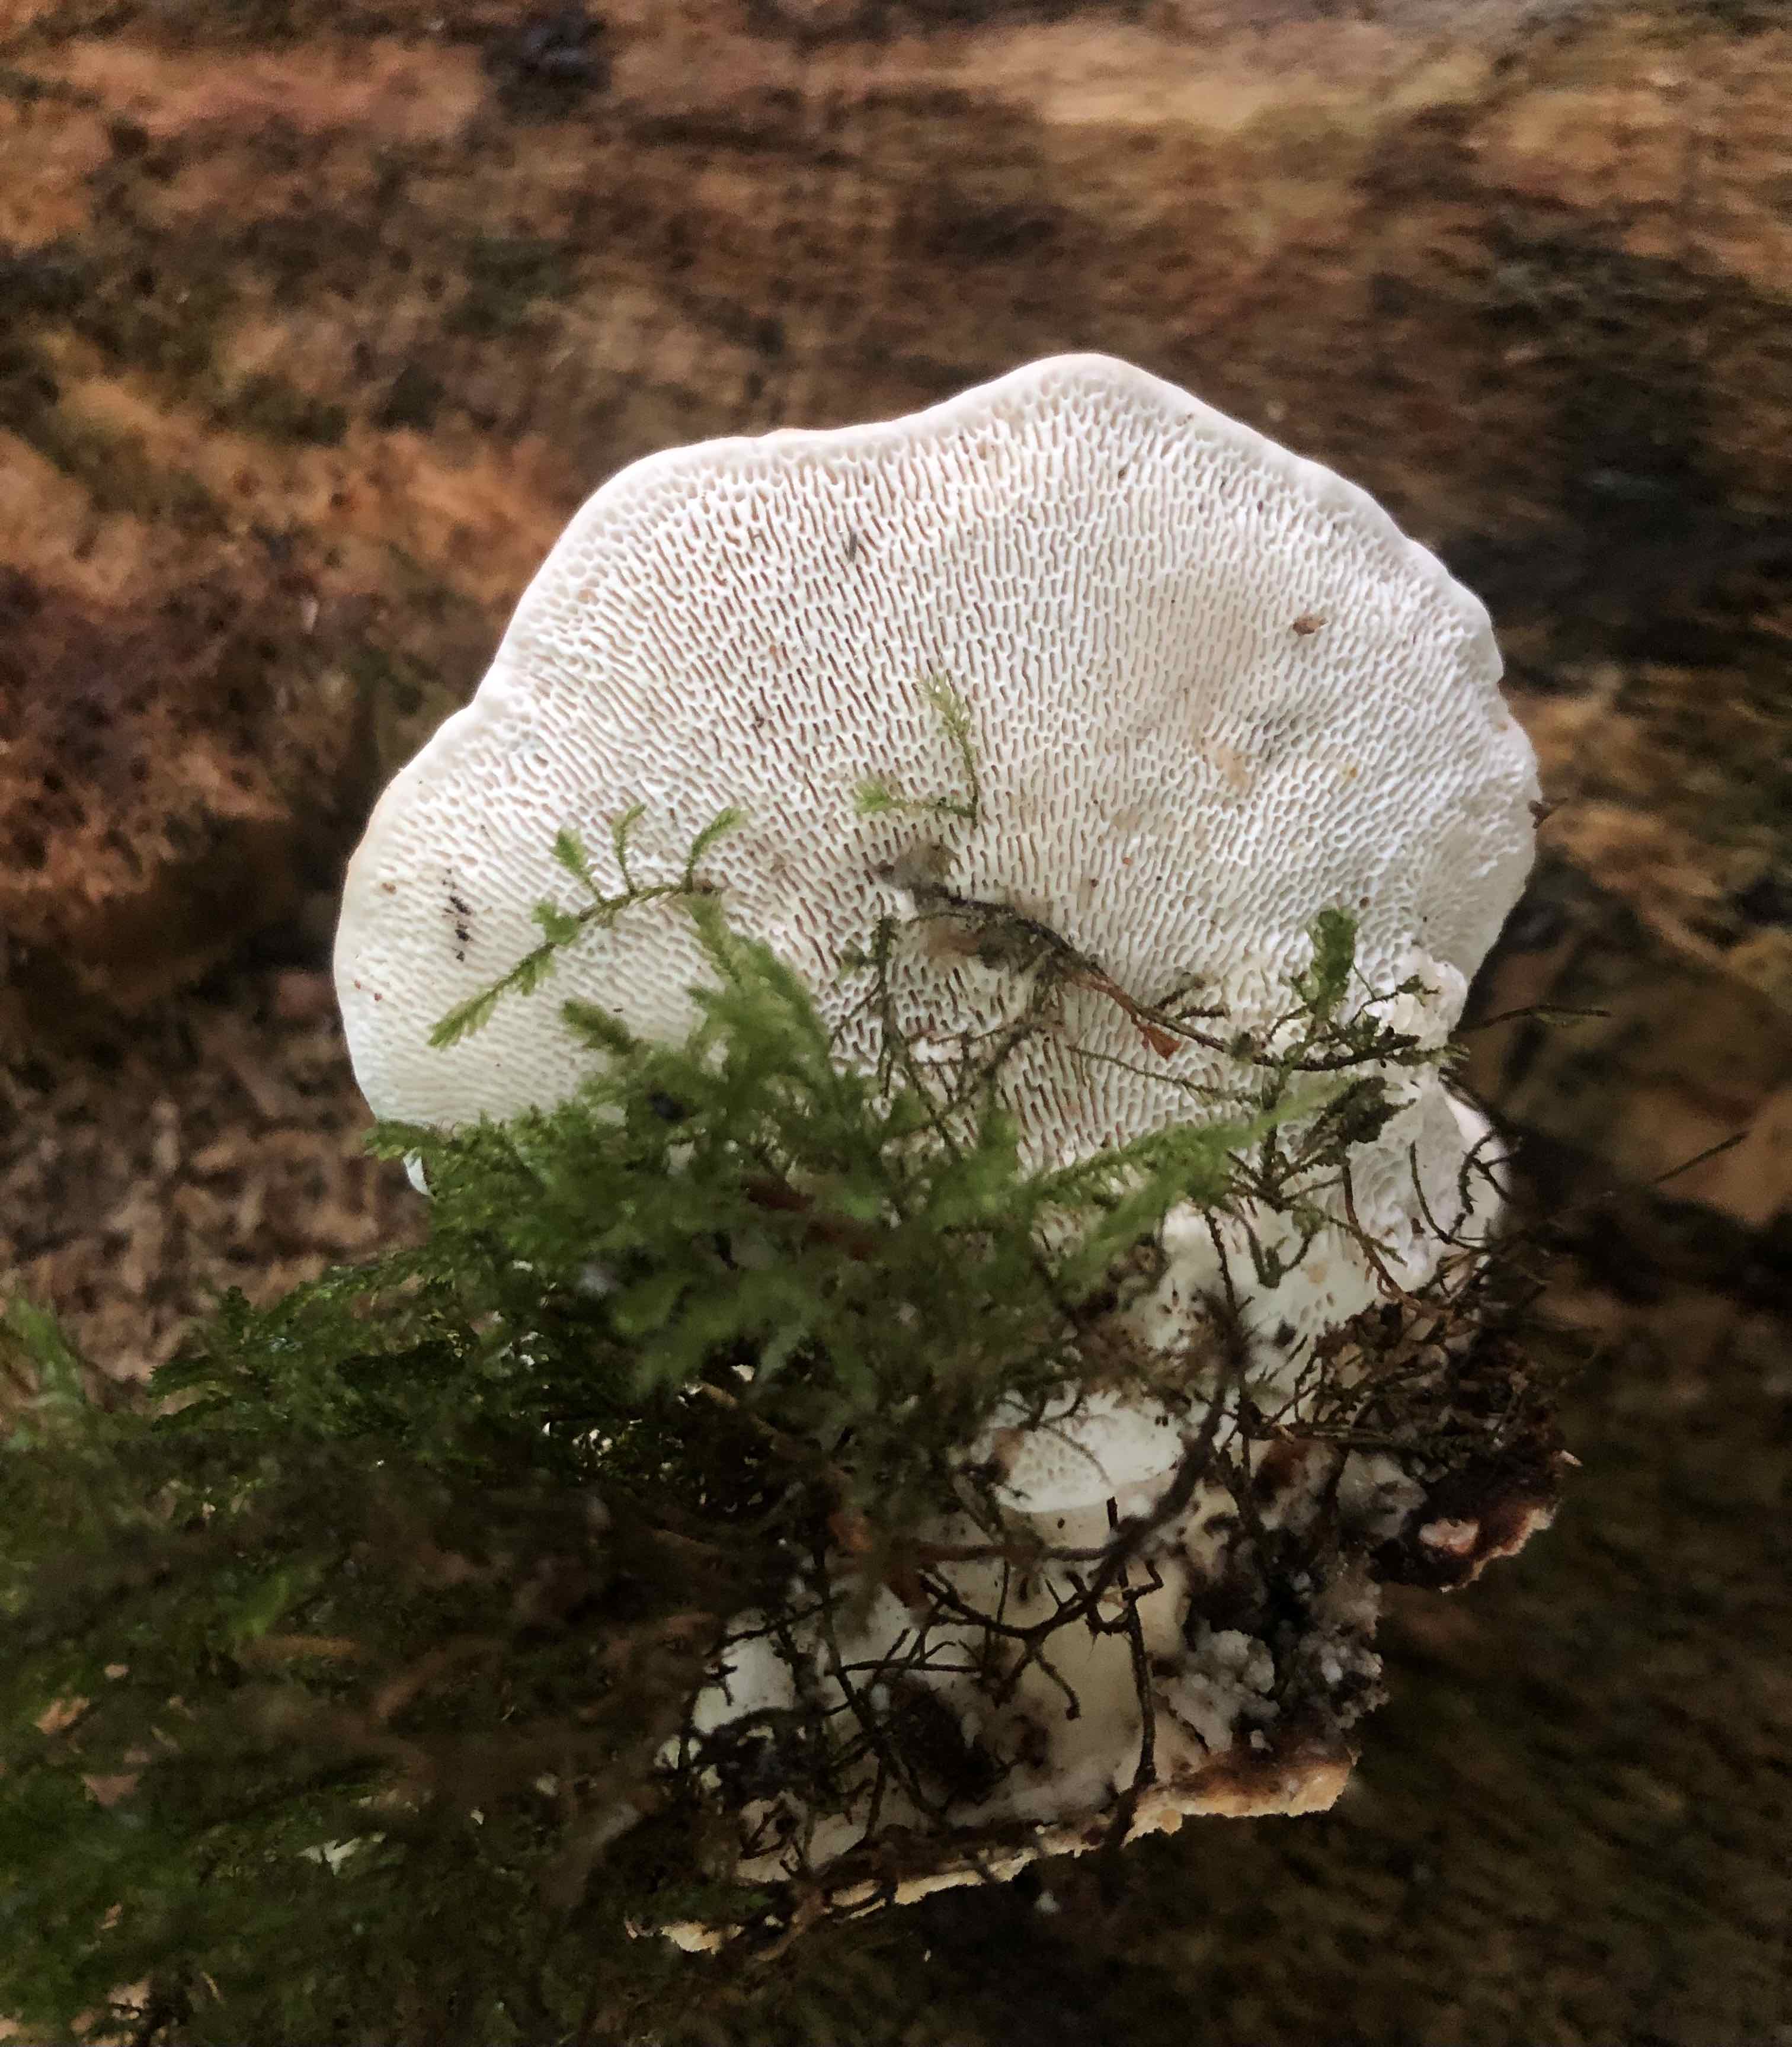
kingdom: Fungi
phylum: Basidiomycota
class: Agaricomycetes
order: Polyporales
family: Polyporaceae
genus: Trametes
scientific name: Trametes gibbosa
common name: puklet læderporesvamp
